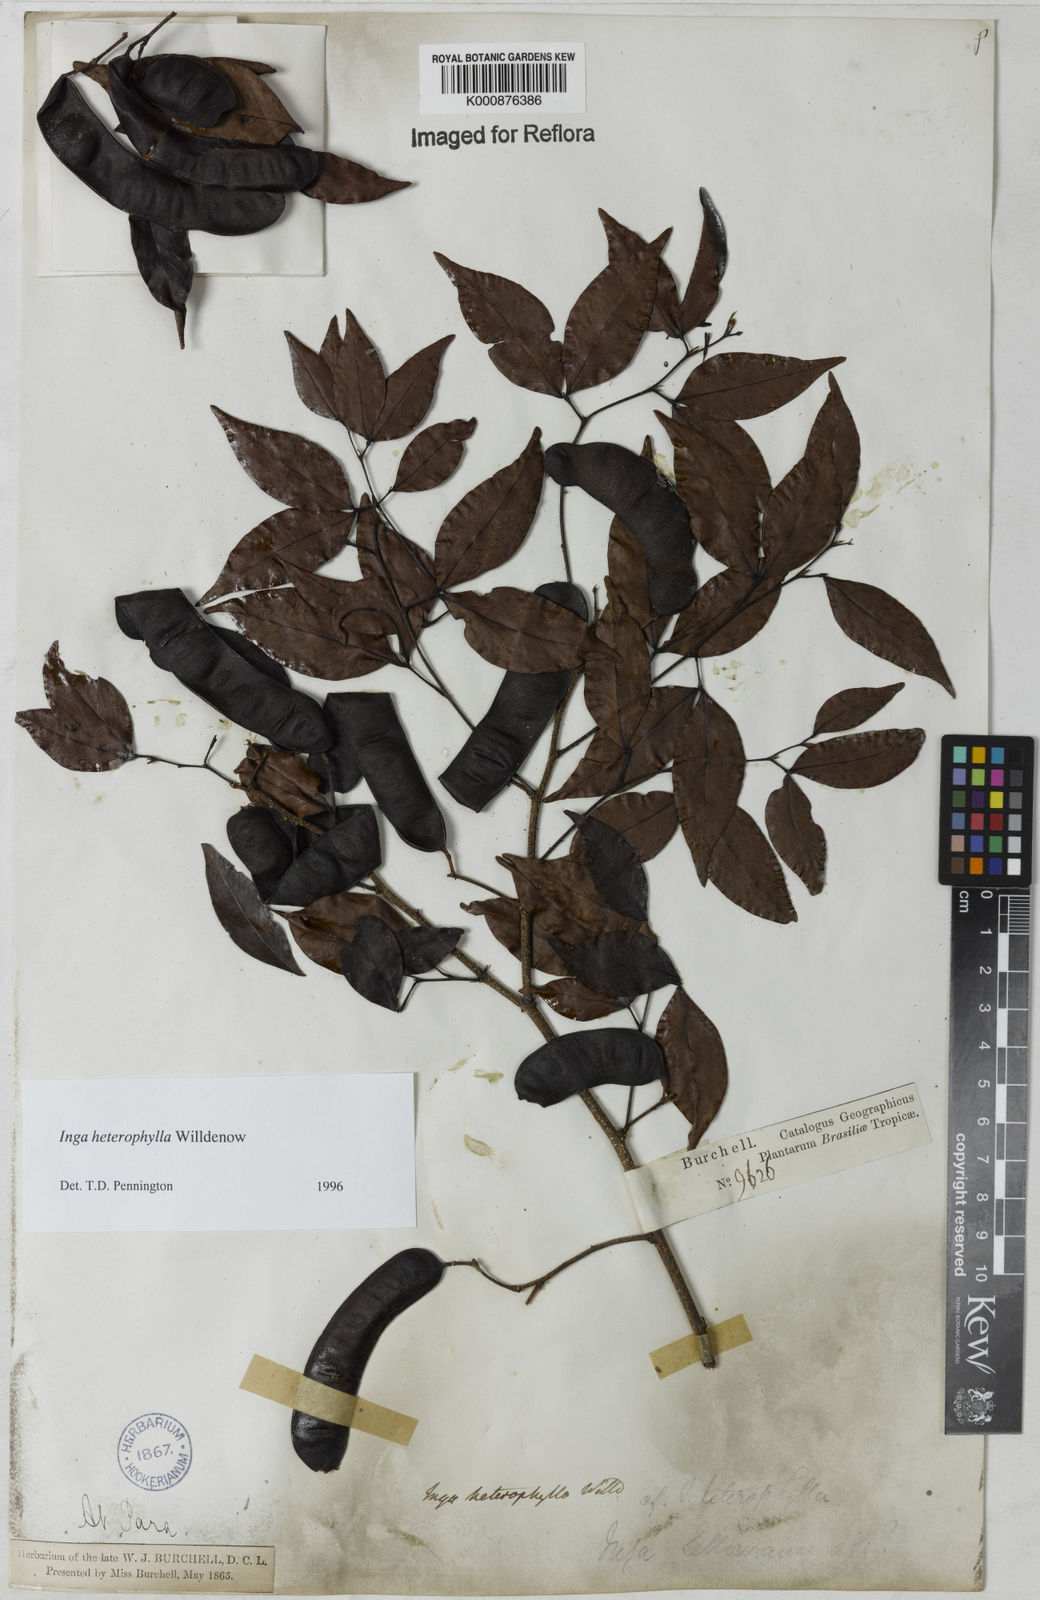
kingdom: Plantae
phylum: Tracheophyta
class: Magnoliopsida
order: Fabales
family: Fabaceae
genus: Inga
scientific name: Inga heterophylla
